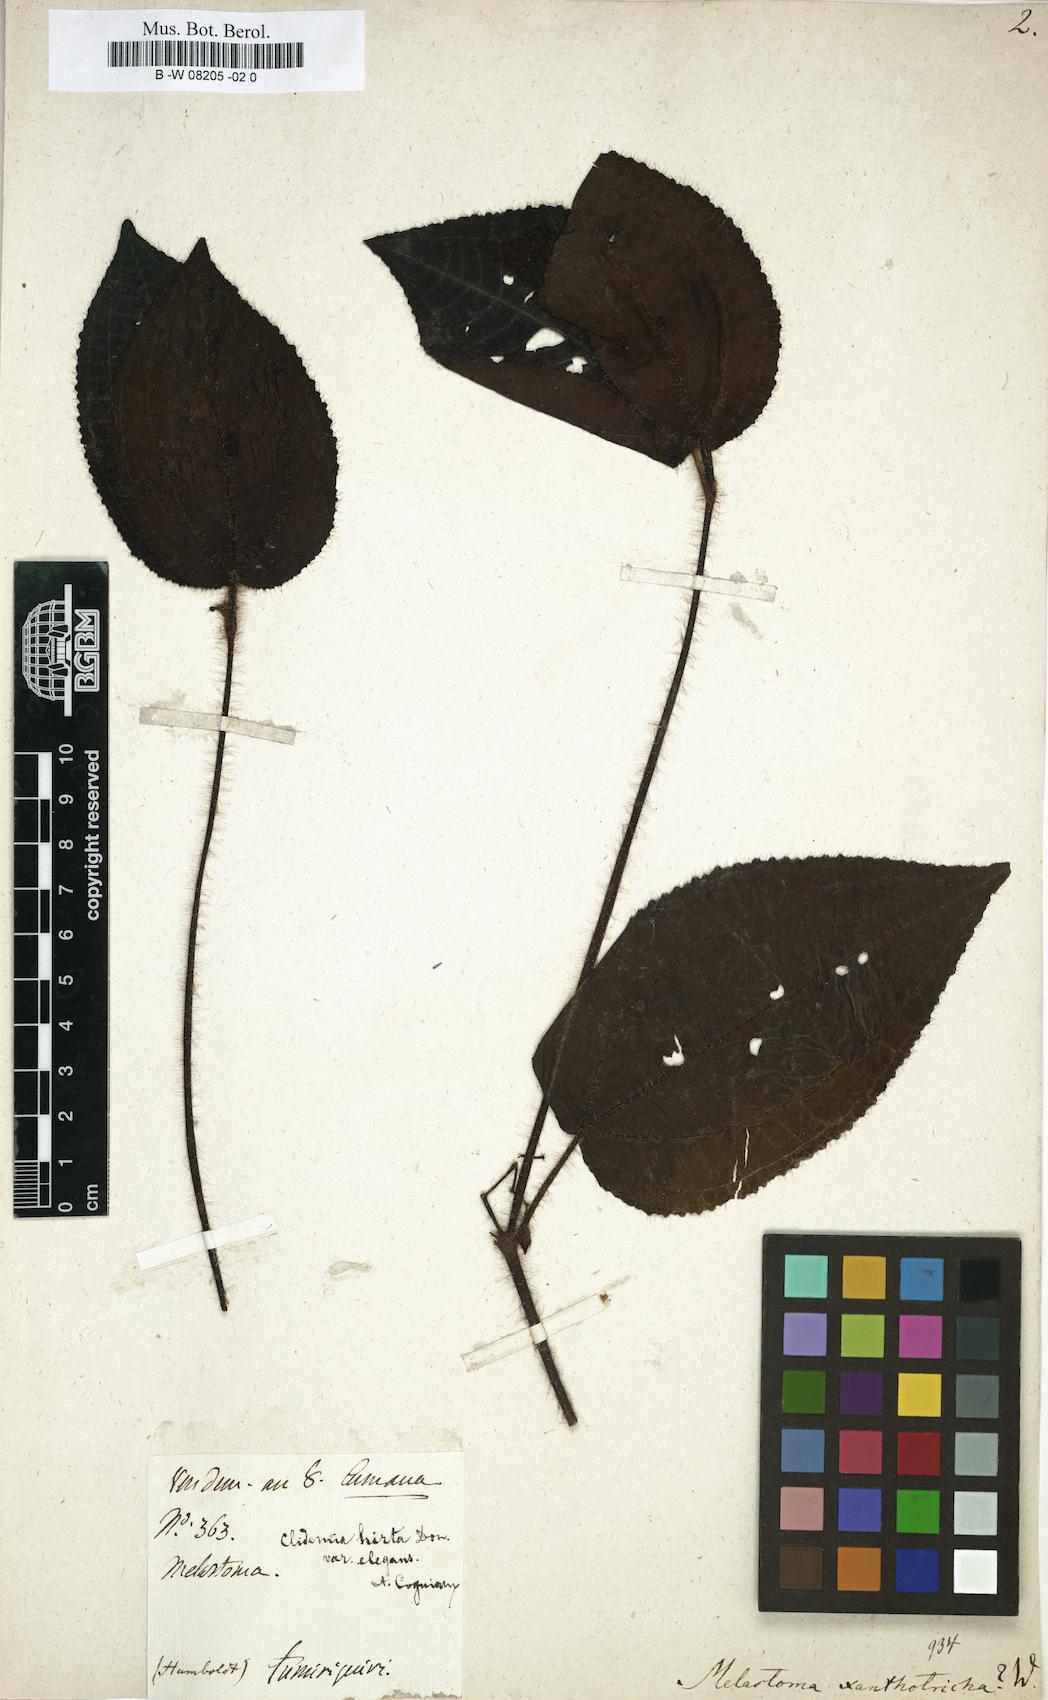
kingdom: Plantae
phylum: Tracheophyta
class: Magnoliopsida
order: Myrtales
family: Melastomataceae
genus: Melastoma
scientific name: Melastoma
